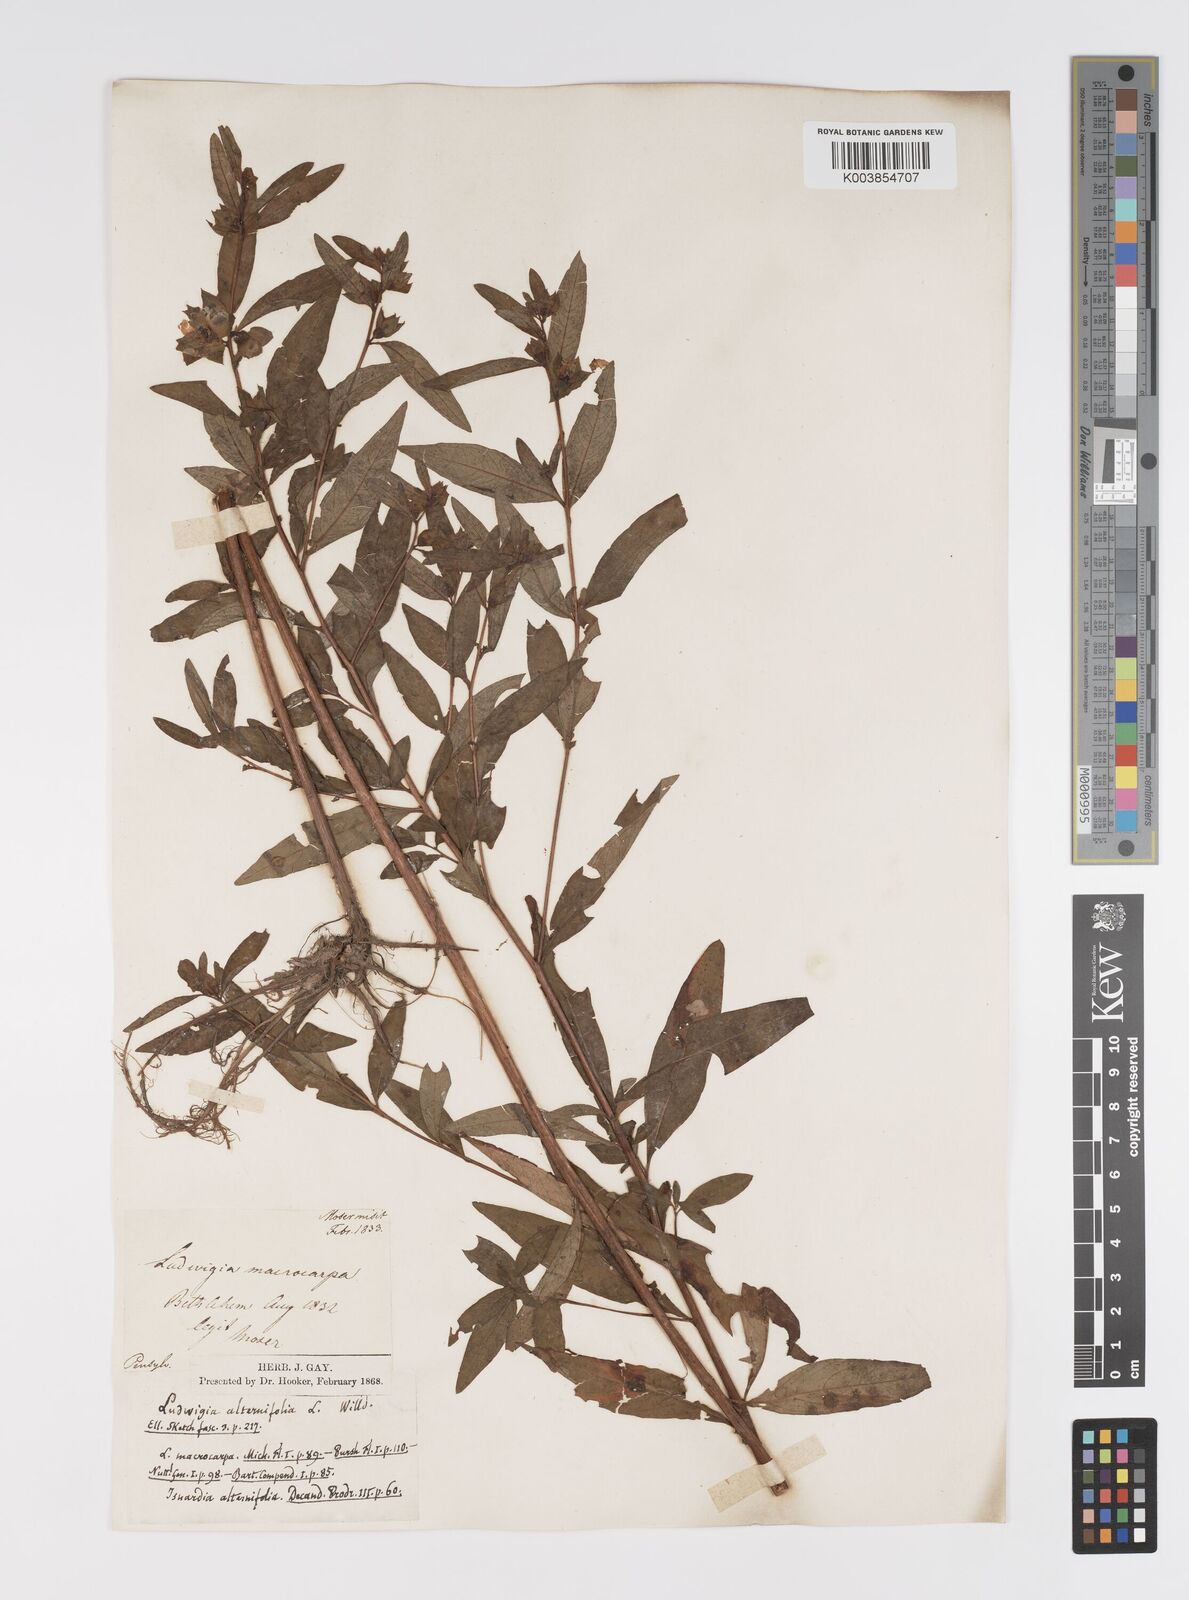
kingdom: Plantae
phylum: Tracheophyta
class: Magnoliopsida
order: Myrtales
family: Onagraceae
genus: Ludwigia
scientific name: Ludwigia alternifolia
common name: Rattlebox
